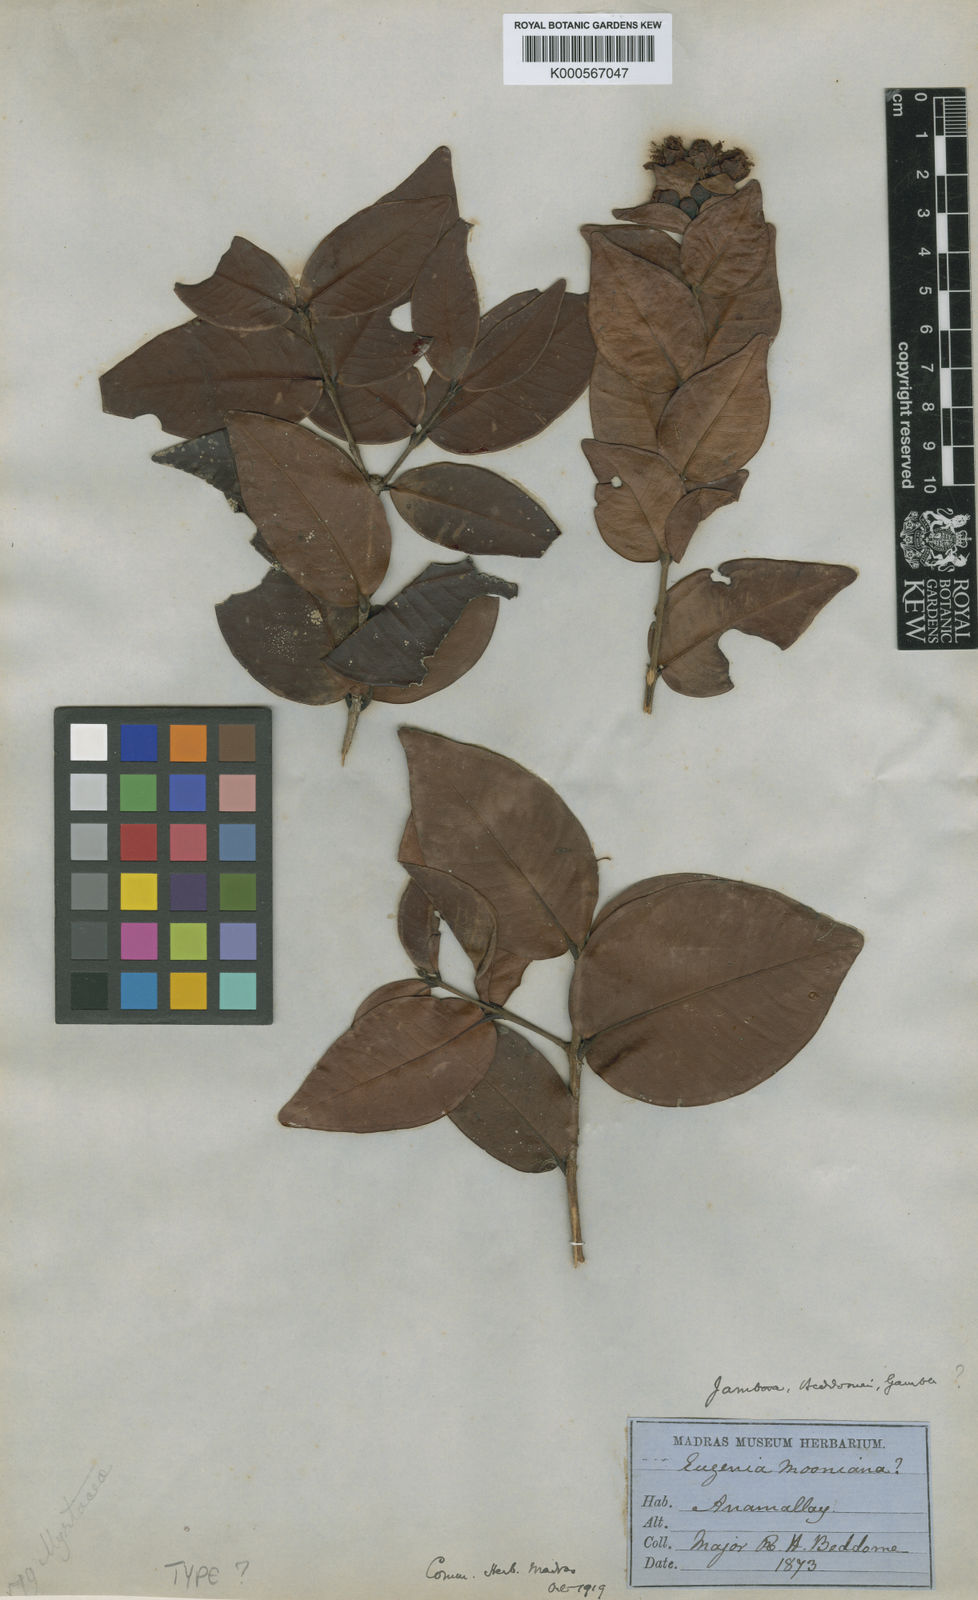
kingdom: Plantae
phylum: Tracheophyta
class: Magnoliopsida
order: Myrtales
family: Myrtaceae
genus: Syzygium
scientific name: Syzygium beddomei
